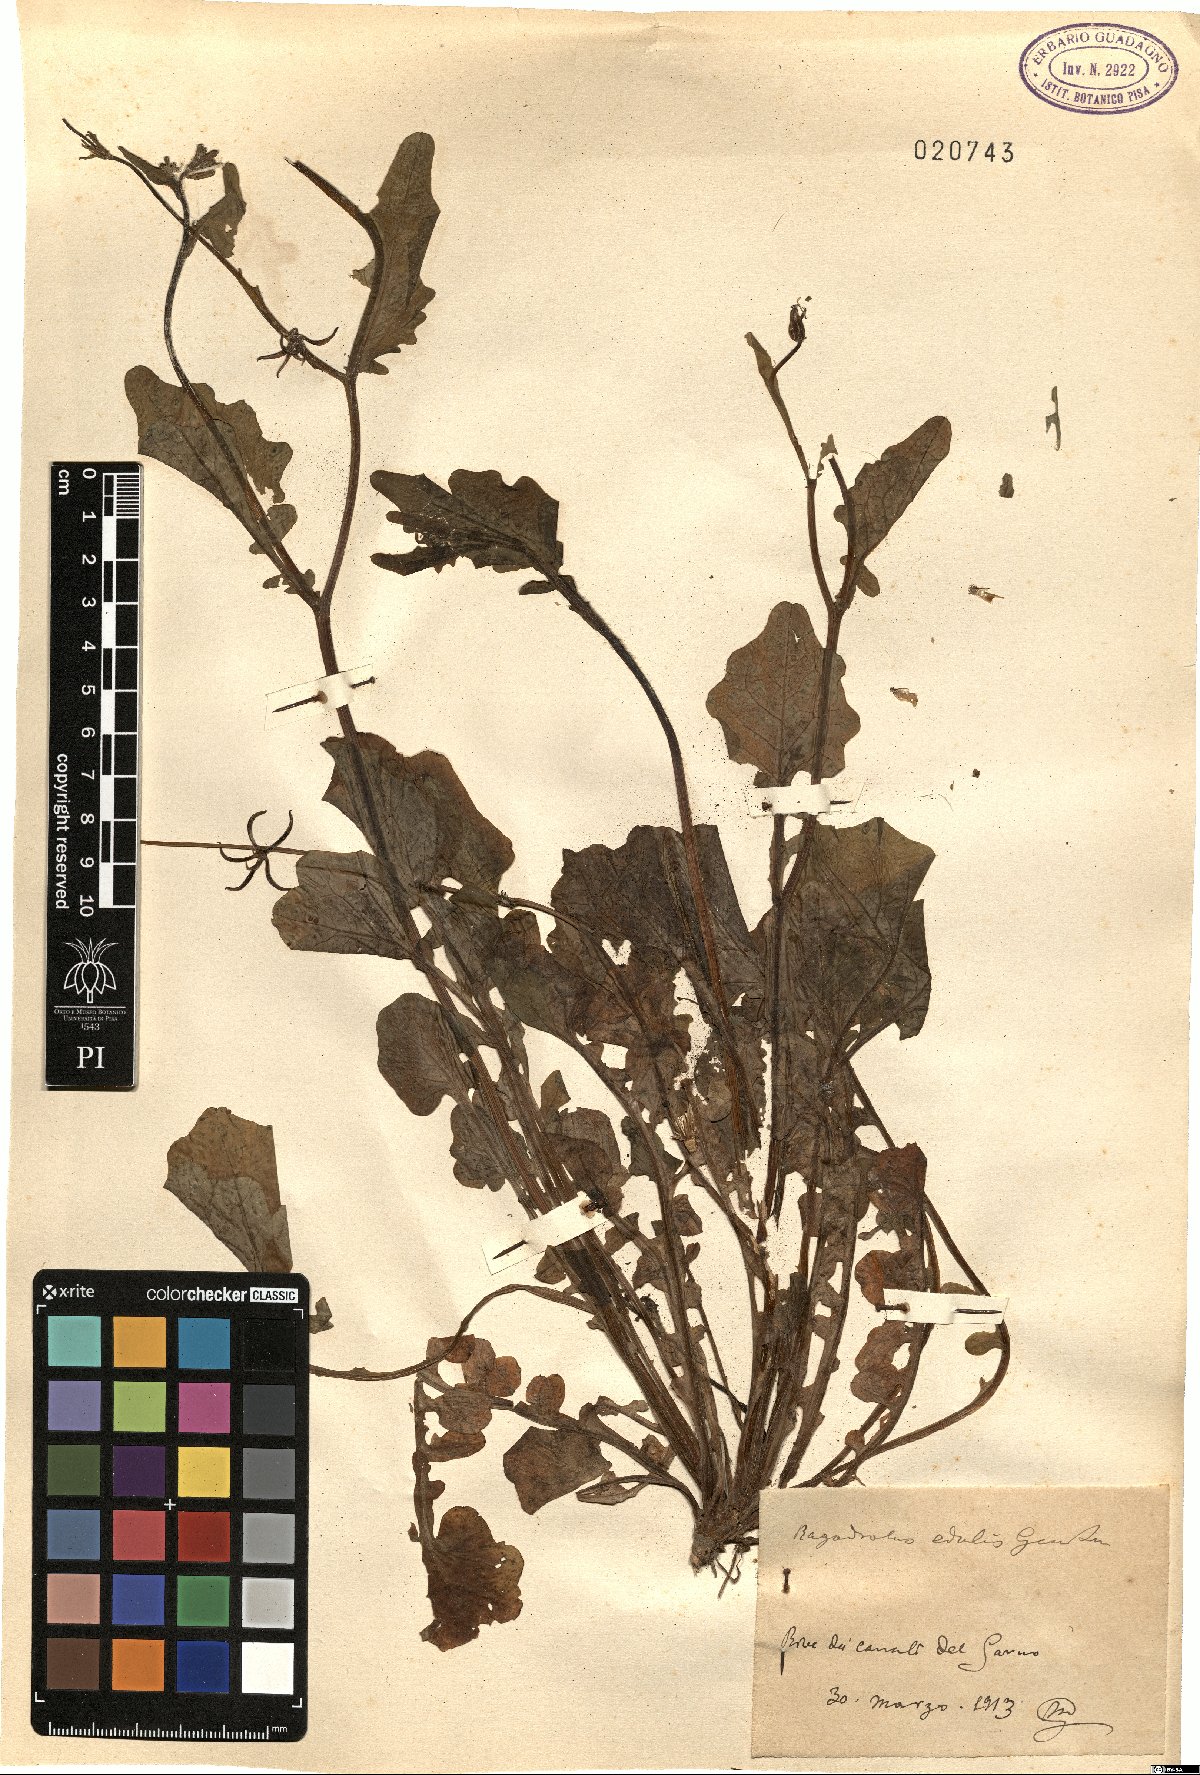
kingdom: Plantae
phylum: Tracheophyta
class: Magnoliopsida
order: Asterales
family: Asteraceae
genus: Rhagadiolus
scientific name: Rhagadiolus edulis
